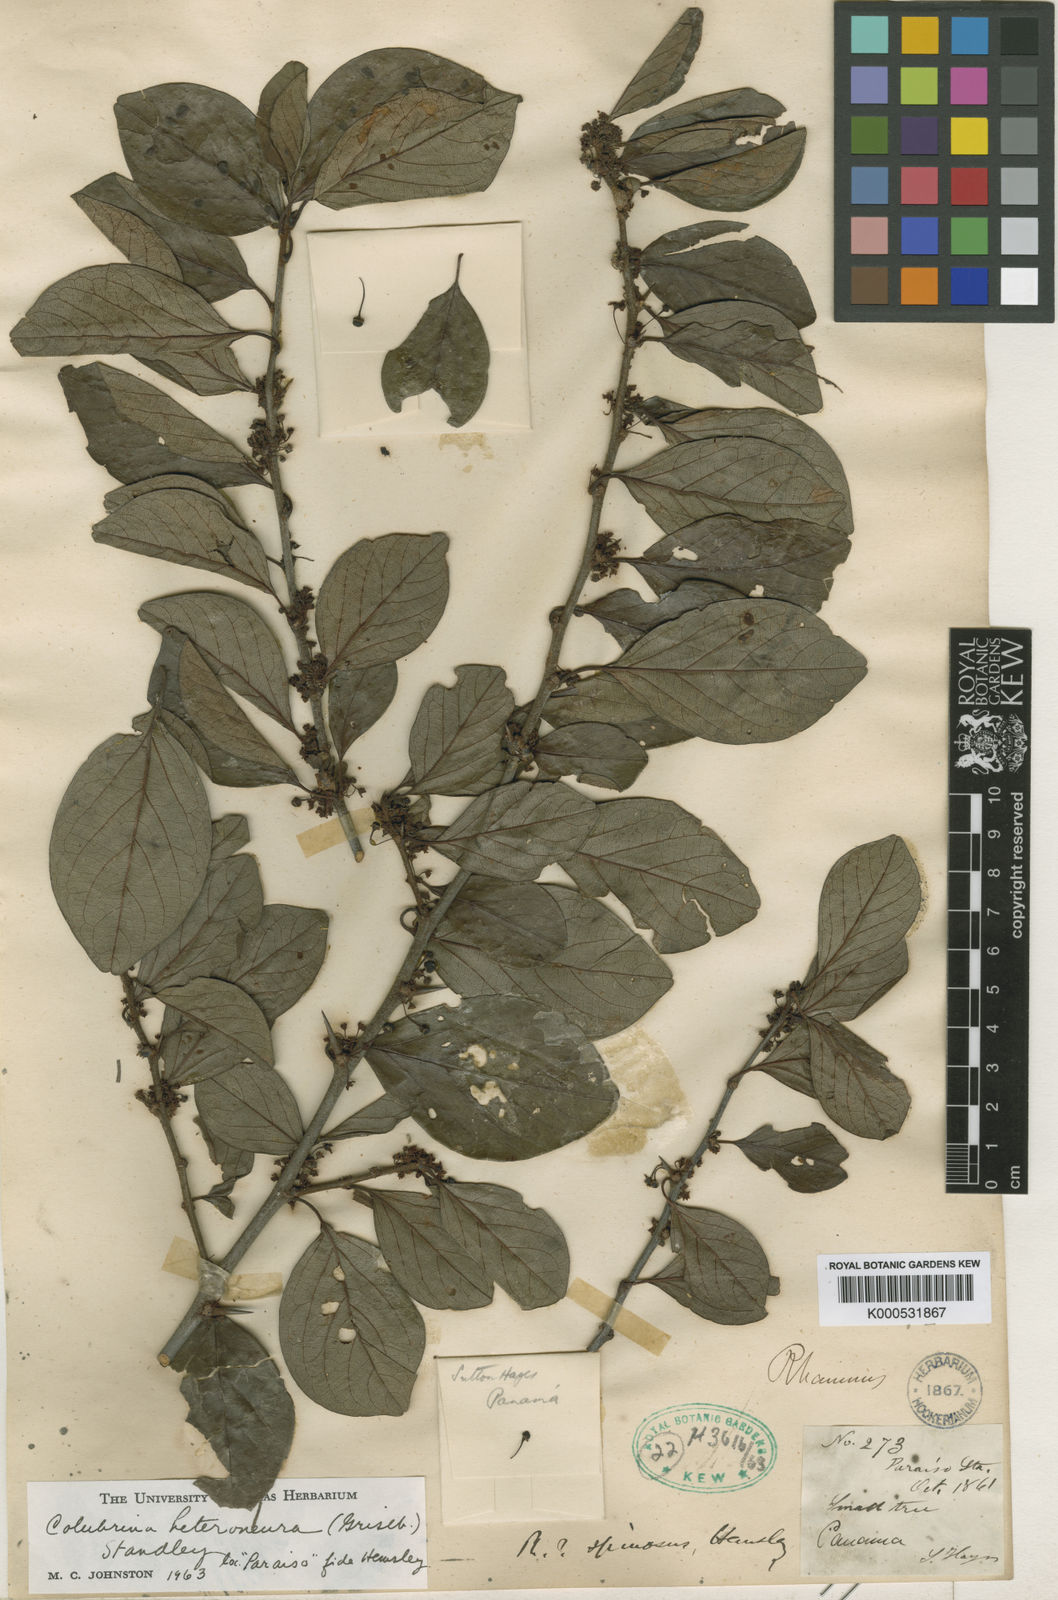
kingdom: Plantae
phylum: Tracheophyta
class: Magnoliopsida
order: Rosales
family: Rhamnaceae
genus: Colubrina
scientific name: Colubrina heteroneura
